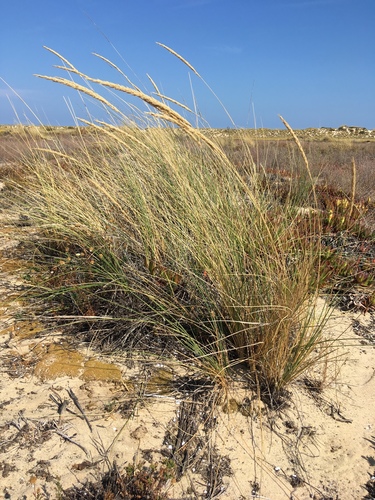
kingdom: Plantae
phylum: Tracheophyta
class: Liliopsida
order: Poales
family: Poaceae
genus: Calamagrostis
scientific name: Calamagrostis arenaria
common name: European beachgrass
